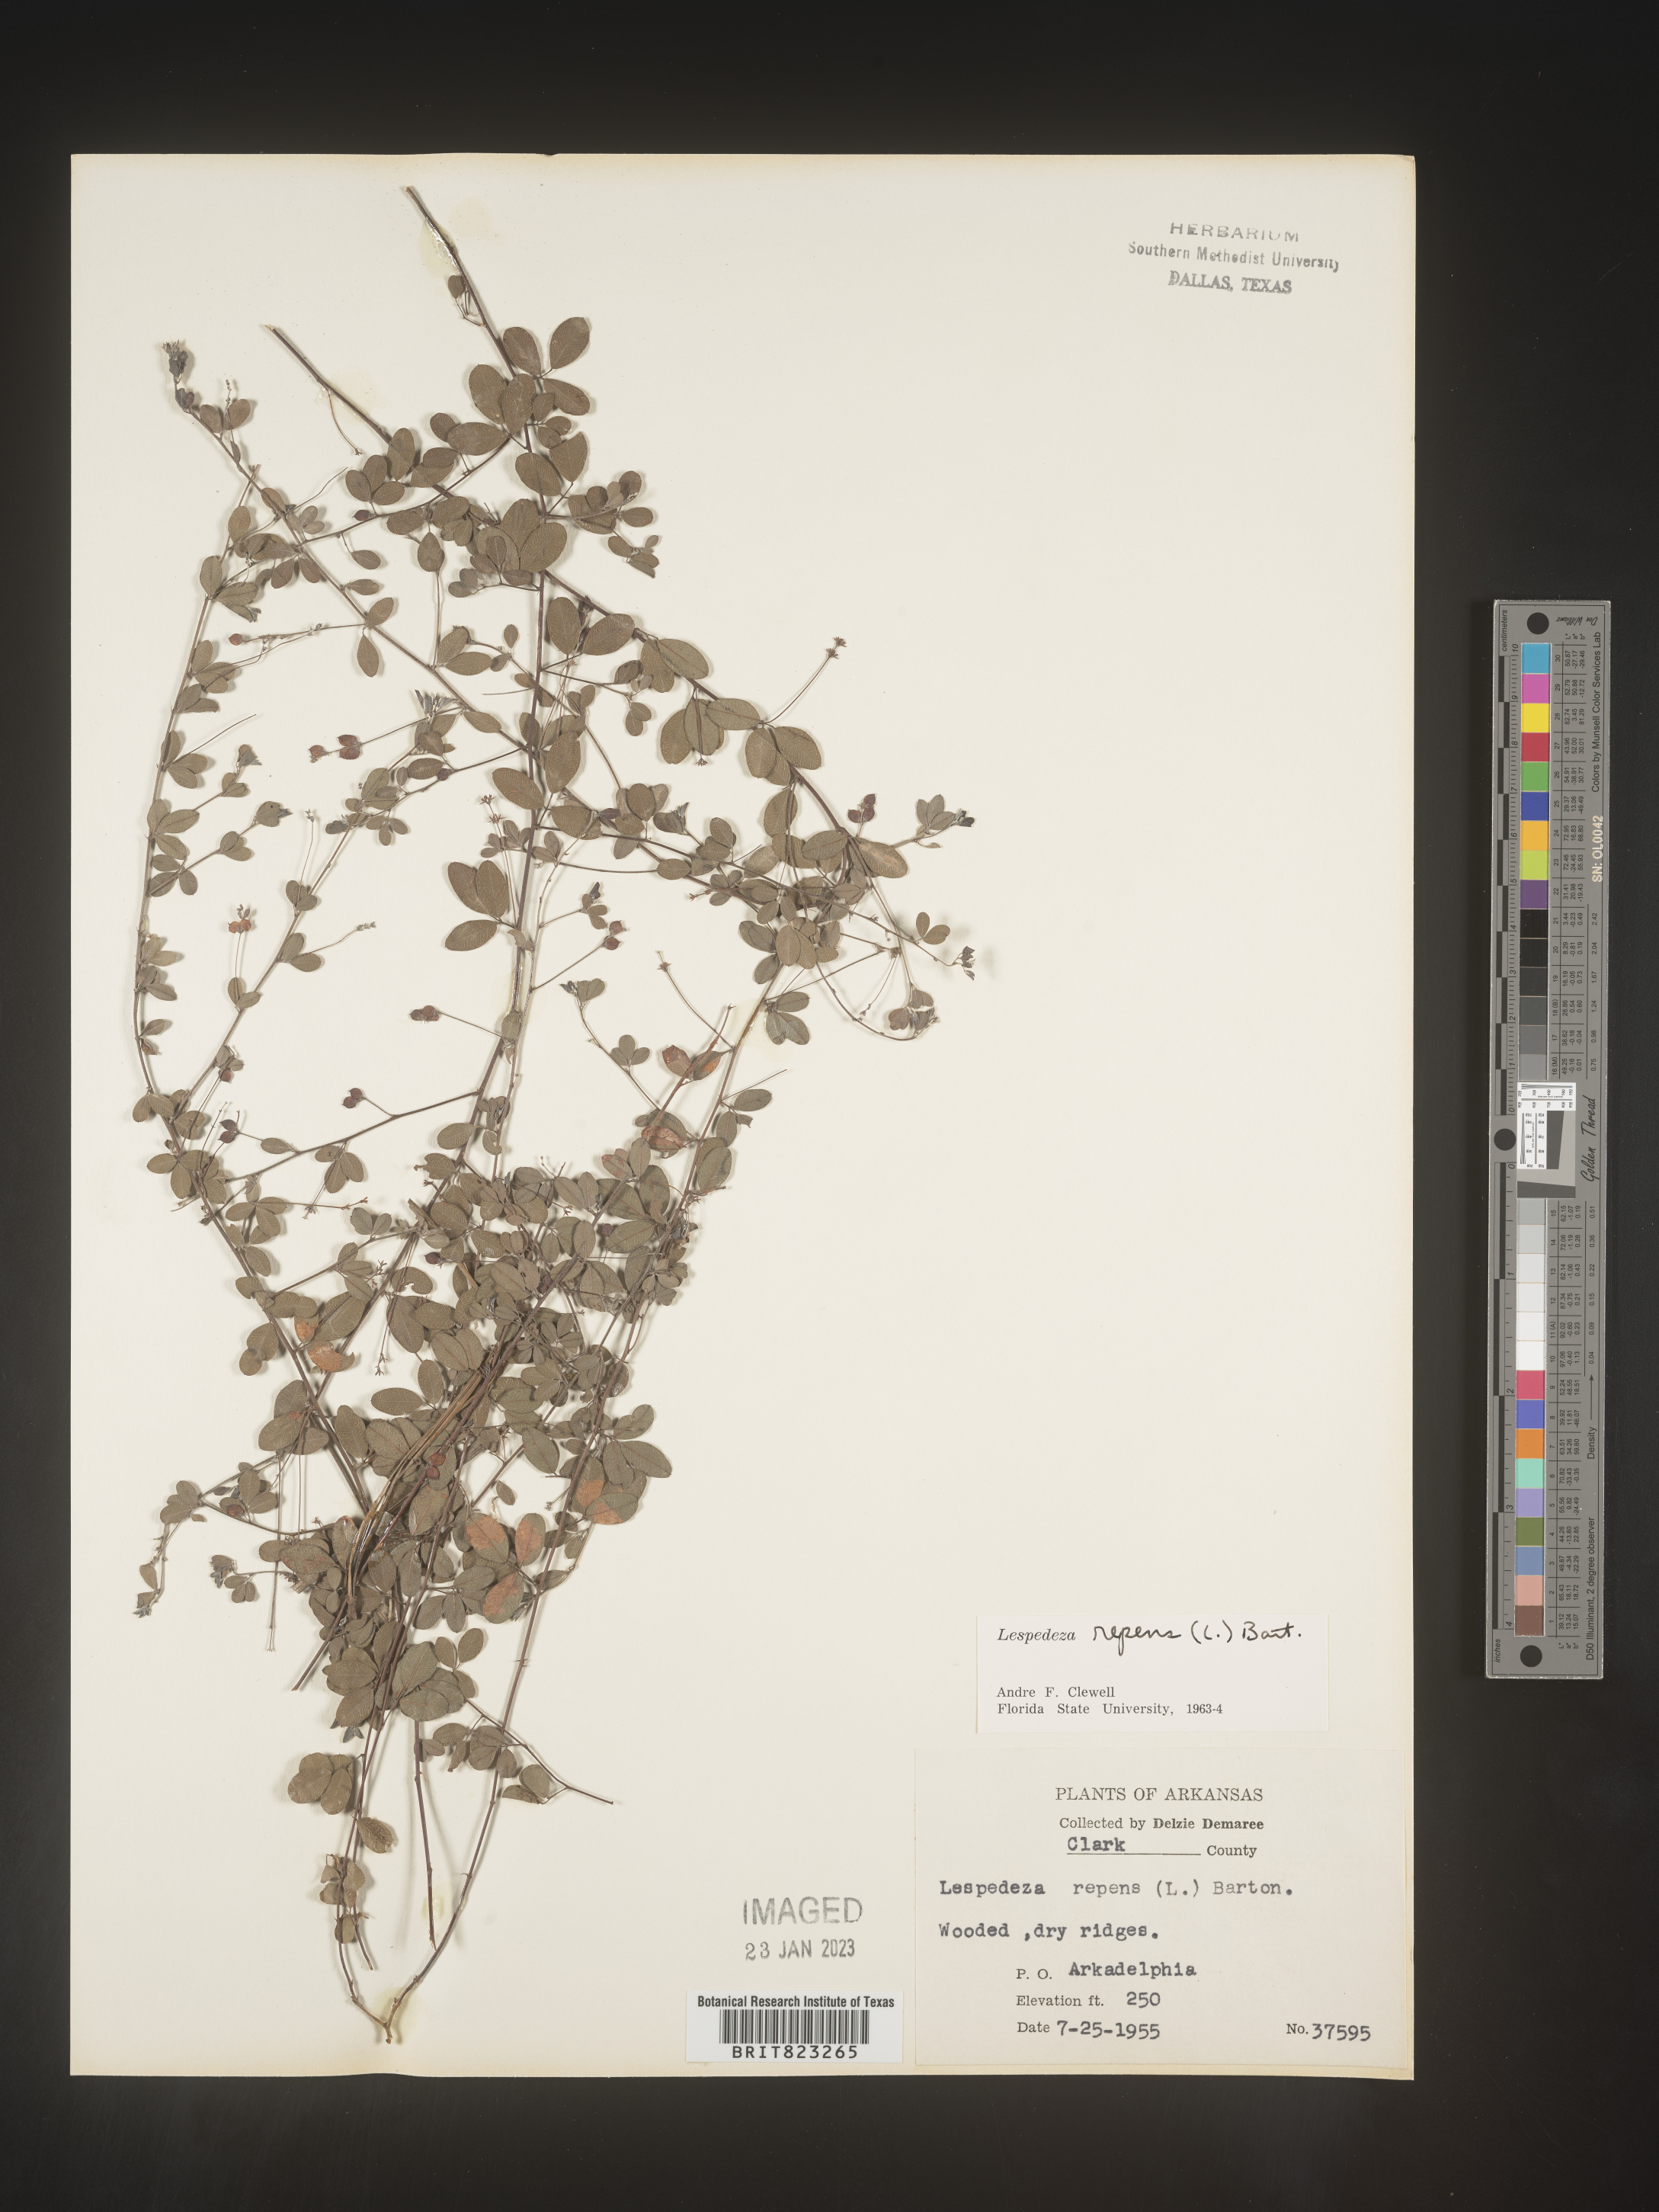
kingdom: Plantae
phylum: Tracheophyta
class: Magnoliopsida
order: Fabales
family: Fabaceae
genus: Lespedeza
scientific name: Lespedeza repens
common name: Creeping bush-clover
